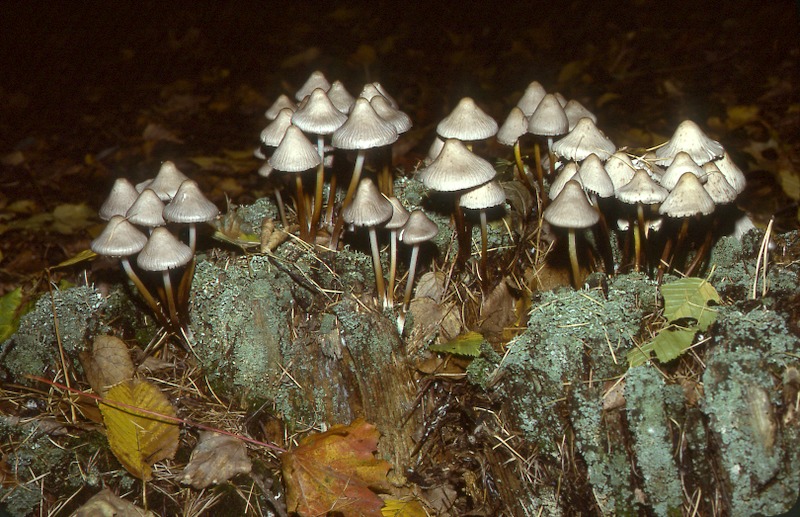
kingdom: Plantae
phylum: Tracheophyta
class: Magnoliopsida
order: Fagales
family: Fagaceae
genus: Quercus
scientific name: Quercus
